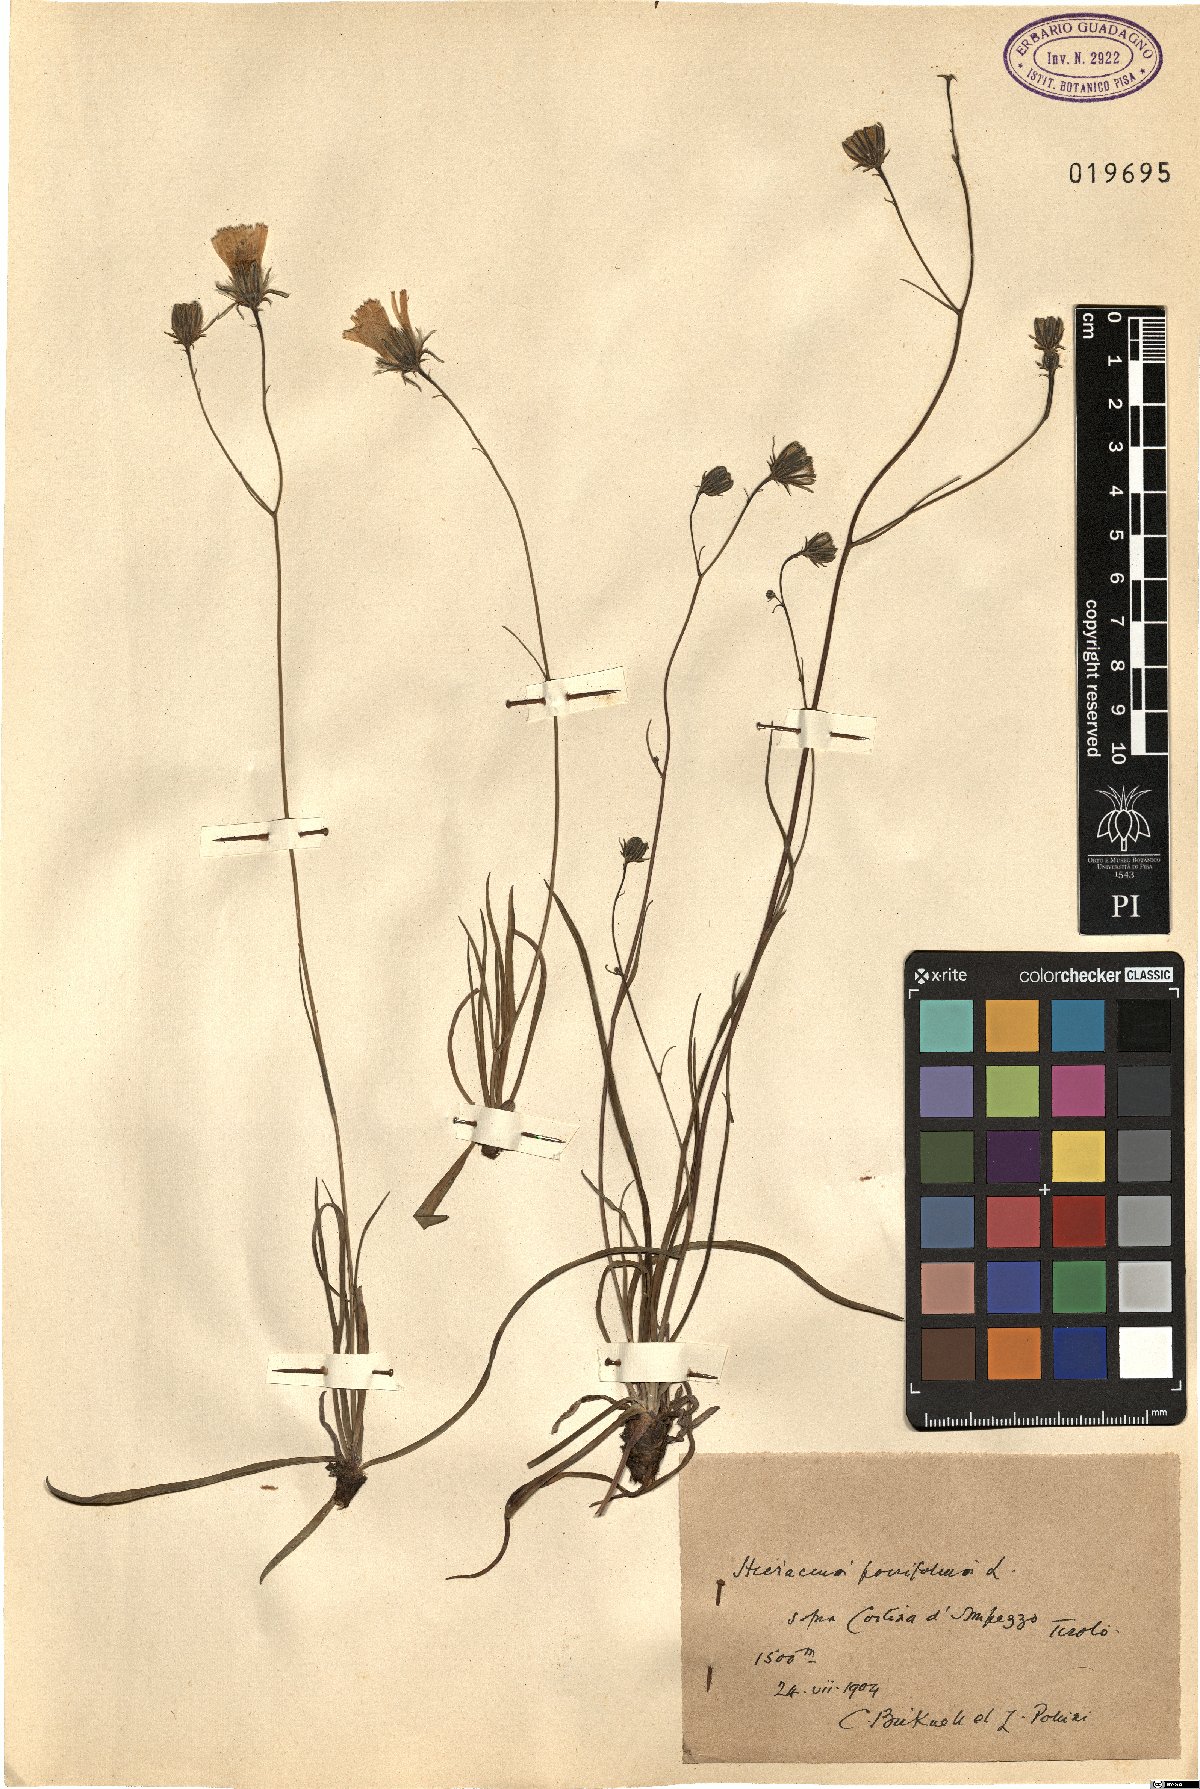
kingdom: Plantae
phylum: Tracheophyta
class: Magnoliopsida
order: Asterales
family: Asteraceae
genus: Hieracium
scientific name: Hieracium porrifolium
